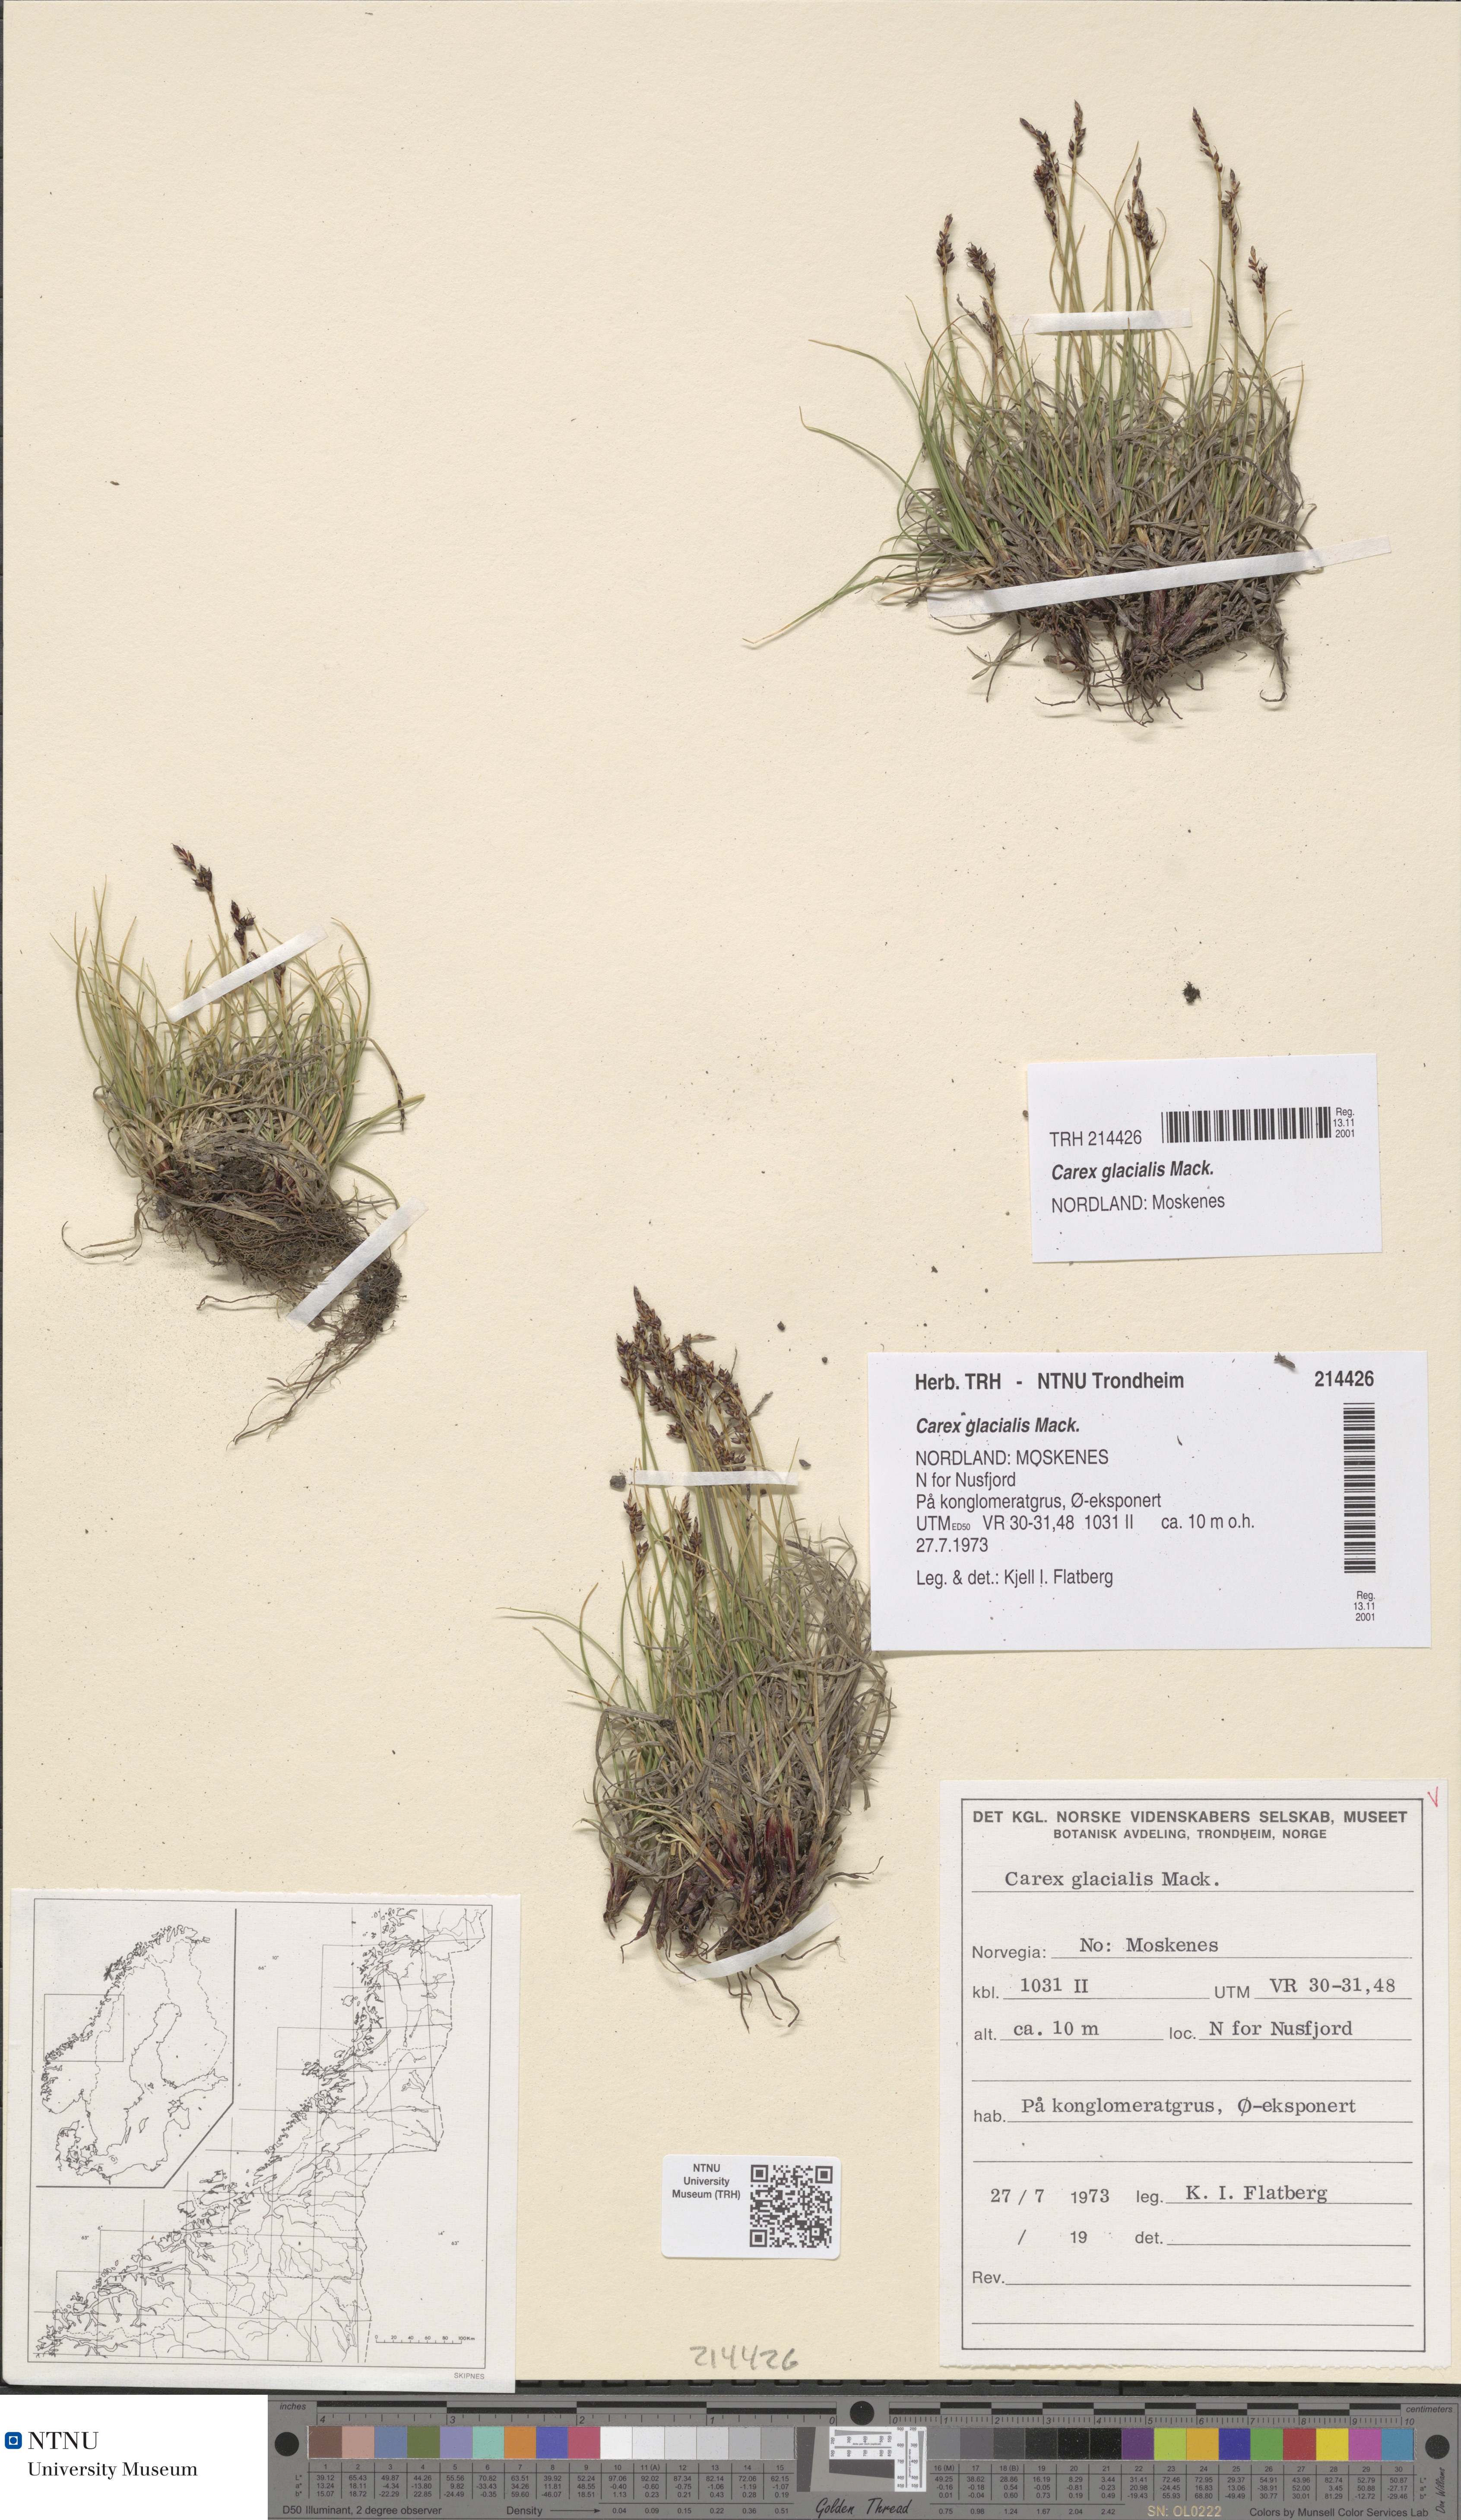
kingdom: Plantae
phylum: Tracheophyta
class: Liliopsida
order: Poales
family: Cyperaceae
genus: Carex
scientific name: Carex glacialis
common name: Newfoundland sedge
